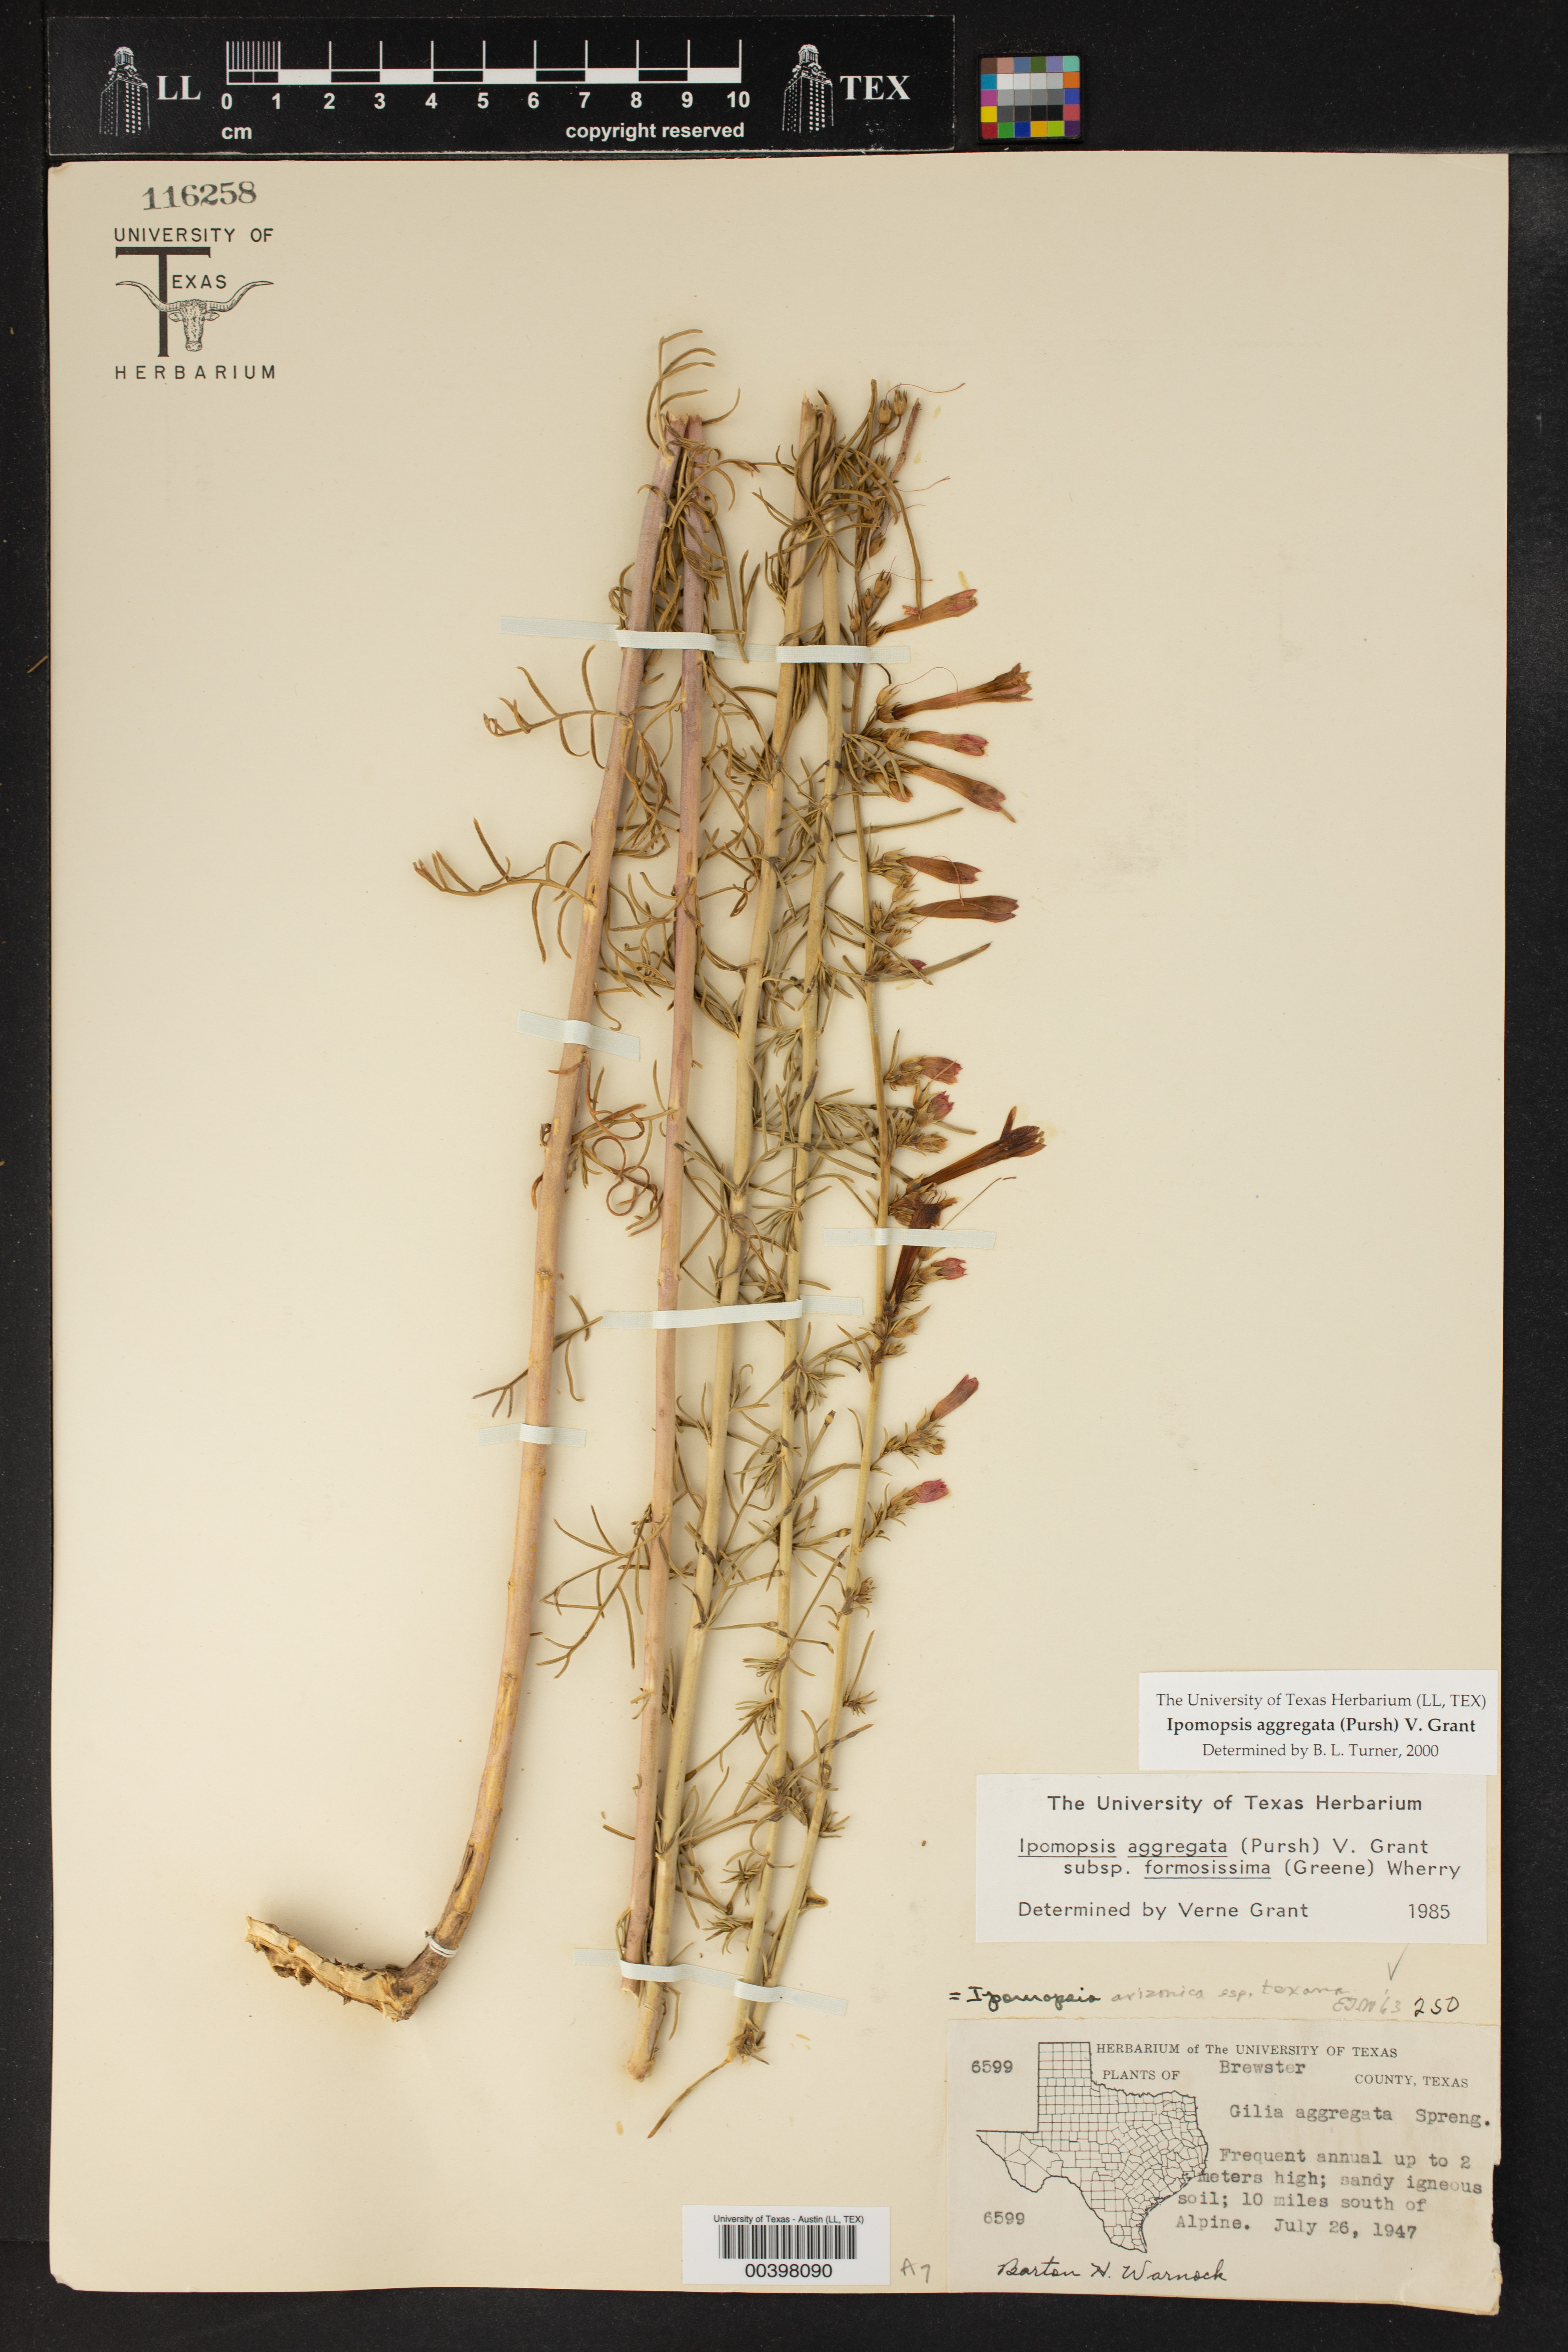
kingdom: Plantae
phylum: Tracheophyta
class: Magnoliopsida
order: Ericales
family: Polemoniaceae
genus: Ipomopsis
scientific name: Ipomopsis aggregata
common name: Scarlet gilia
